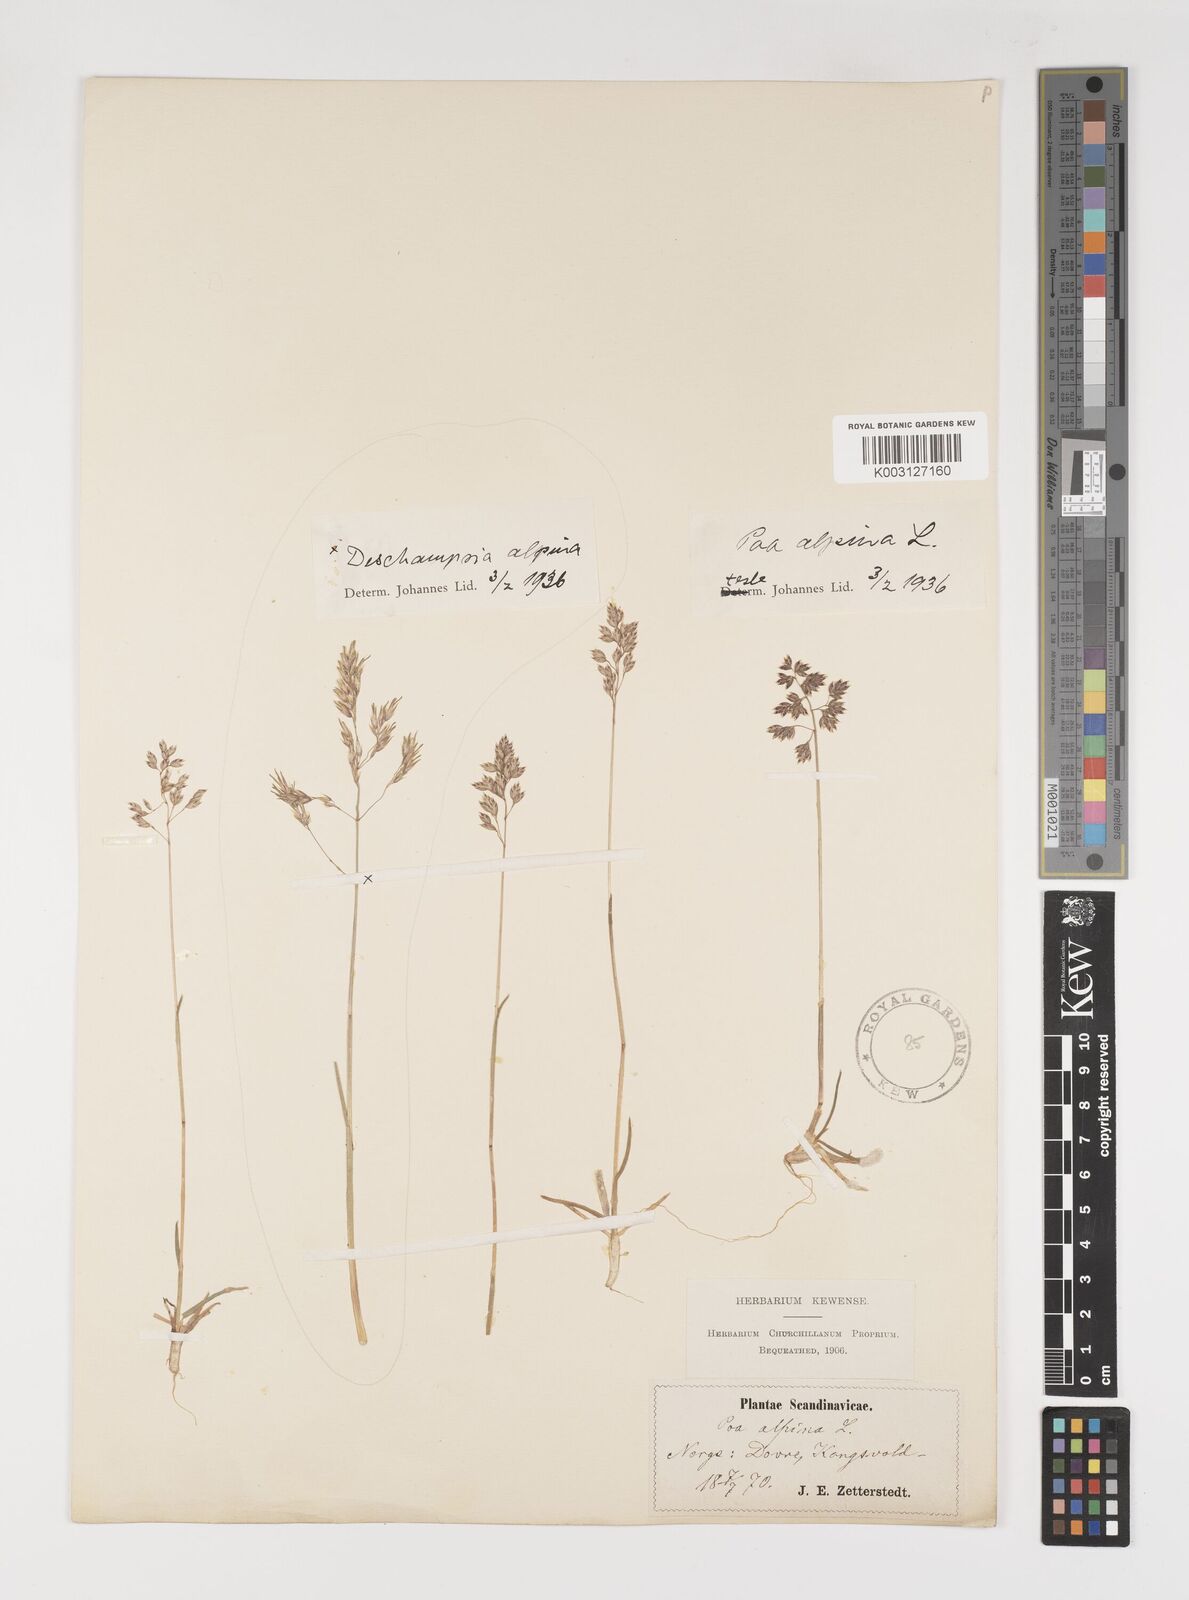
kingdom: Plantae
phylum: Tracheophyta
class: Liliopsida
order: Poales
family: Poaceae
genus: Poa
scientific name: Poa alpina
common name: Alpine bluegrass
